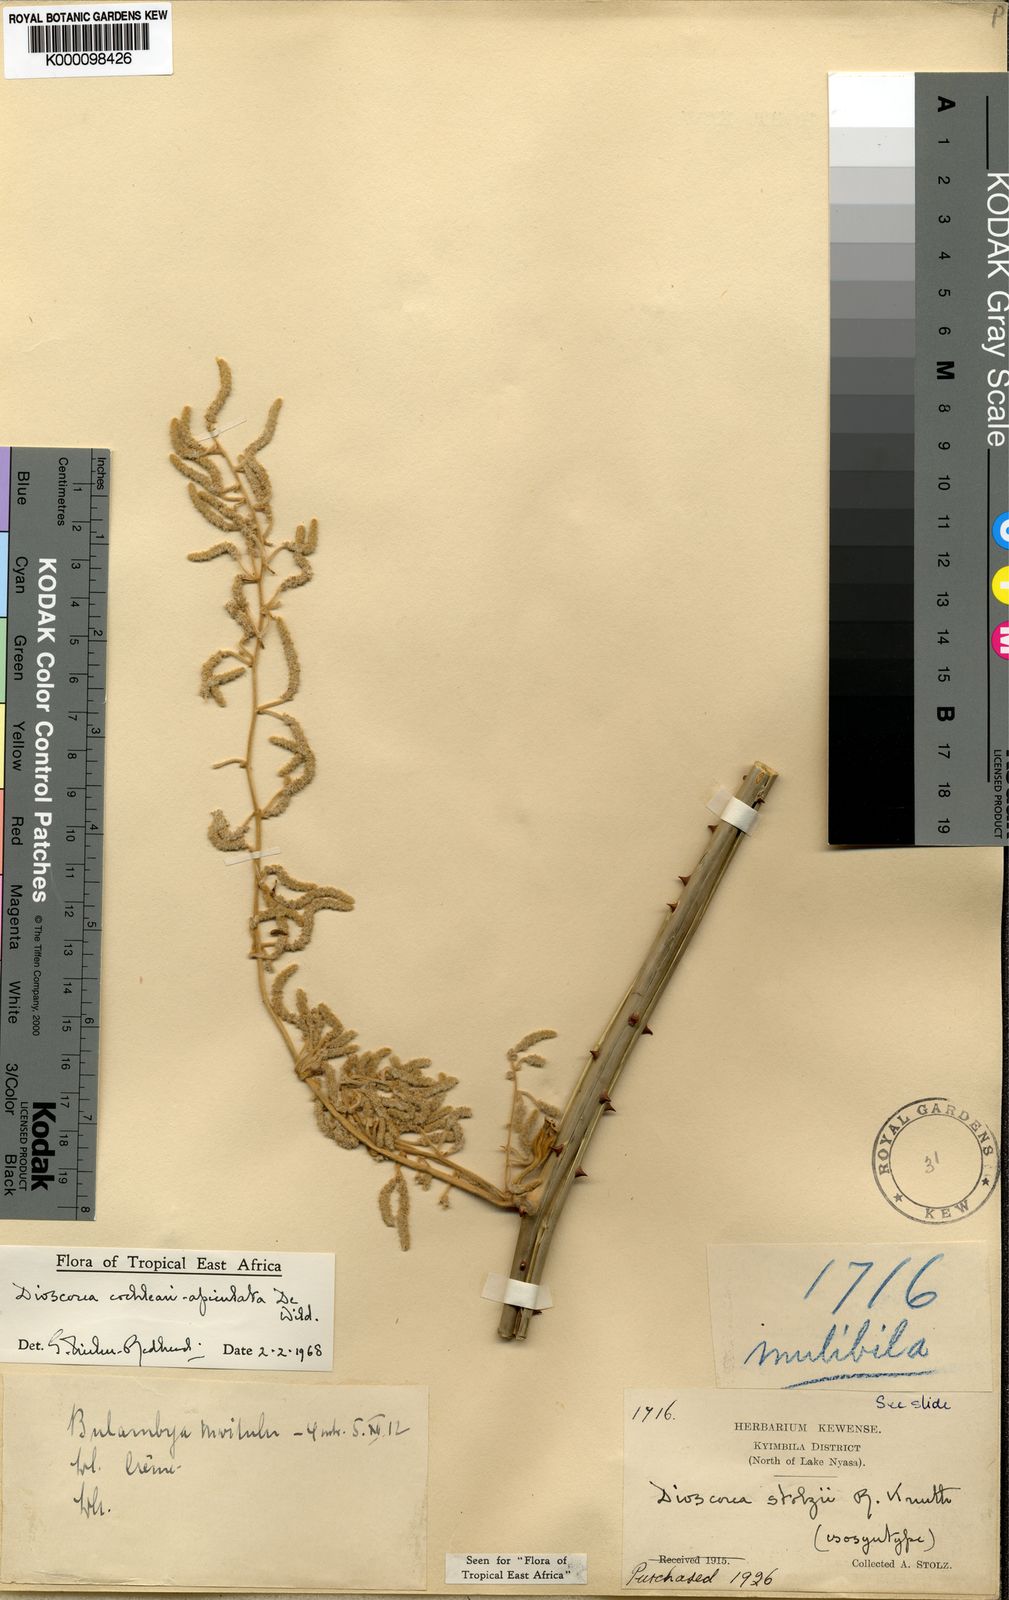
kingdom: Plantae
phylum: Tracheophyta
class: Liliopsida
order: Dioscoreales
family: Dioscoreaceae
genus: Dioscorea
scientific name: Dioscorea cochleariapiculata
